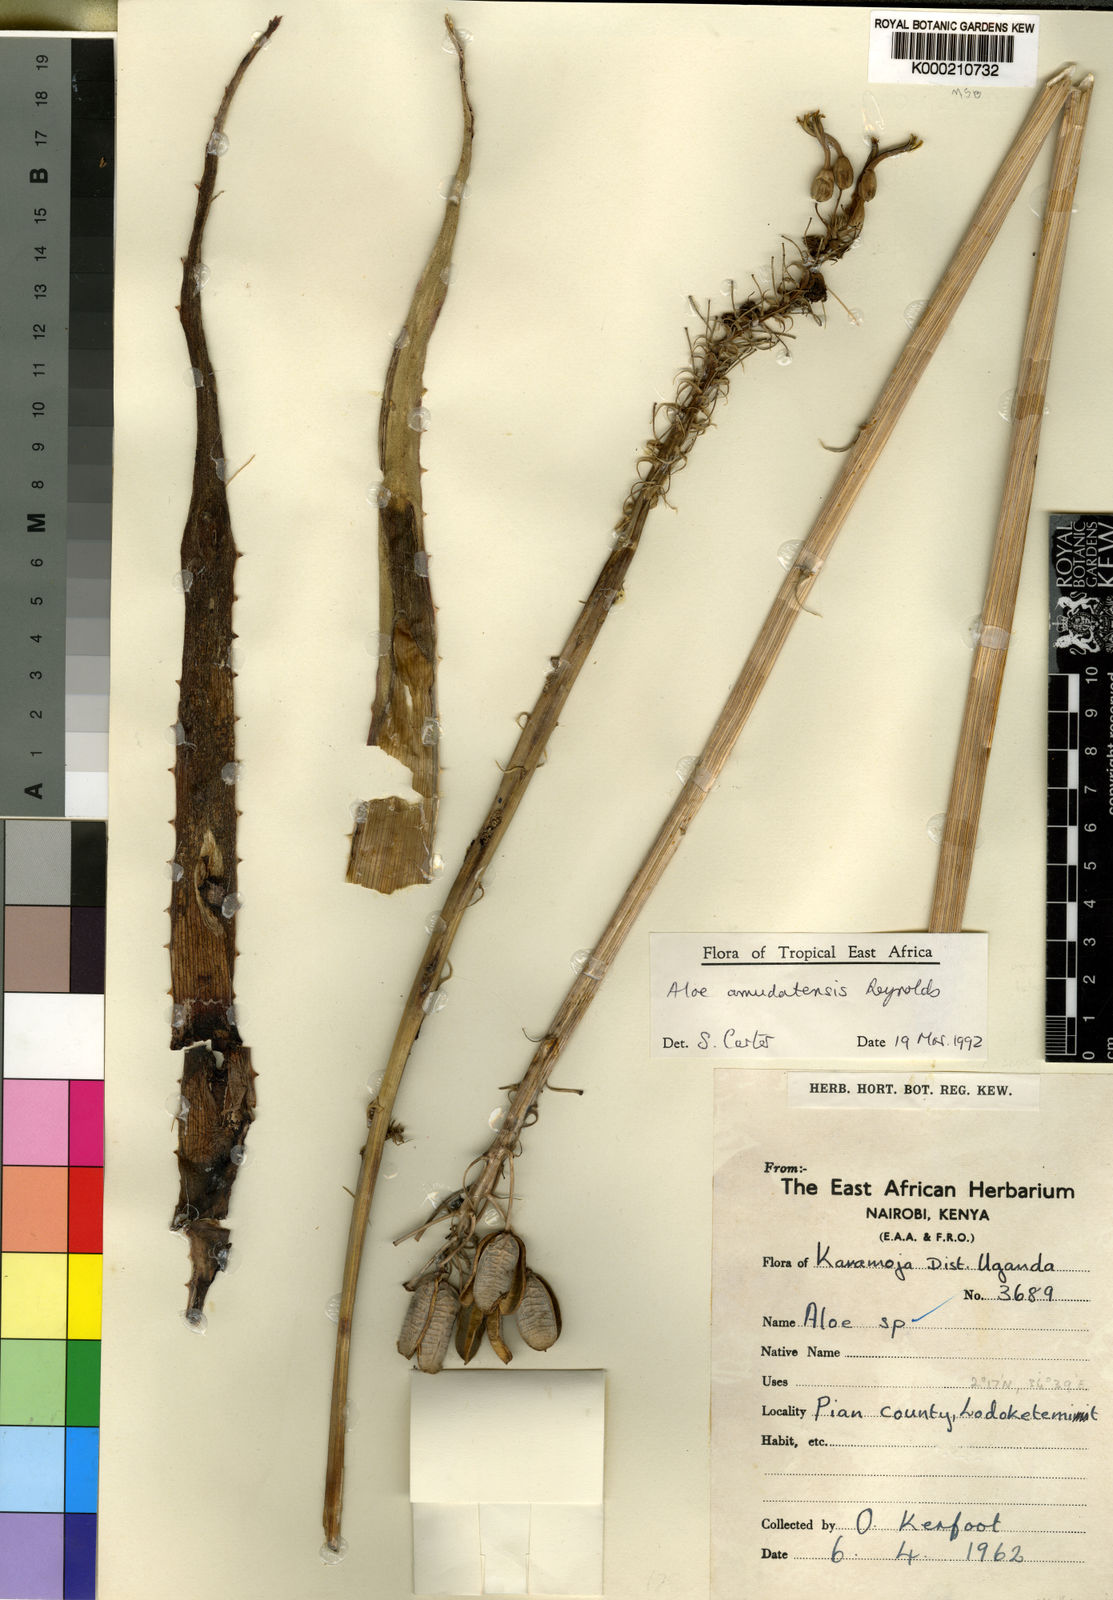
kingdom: Plantae
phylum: Tracheophyta
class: Liliopsida
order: Asparagales
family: Asphodelaceae
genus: Aloe
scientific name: Aloe amudatensis
